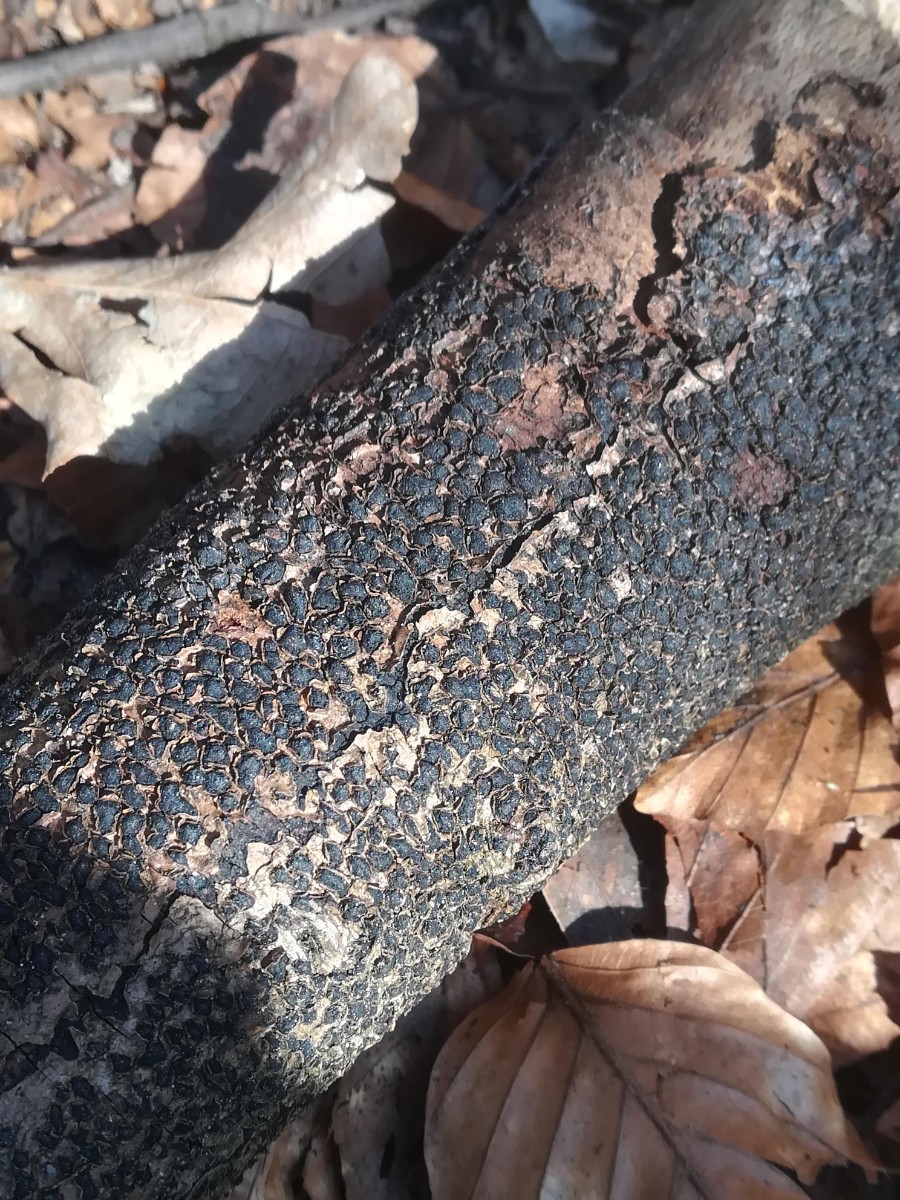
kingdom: Fungi
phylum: Ascomycota
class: Sordariomycetes
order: Xylariales
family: Melogrammataceae
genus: Melogramma
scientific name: Melogramma spiniferum
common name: bøgefod-kulhals
